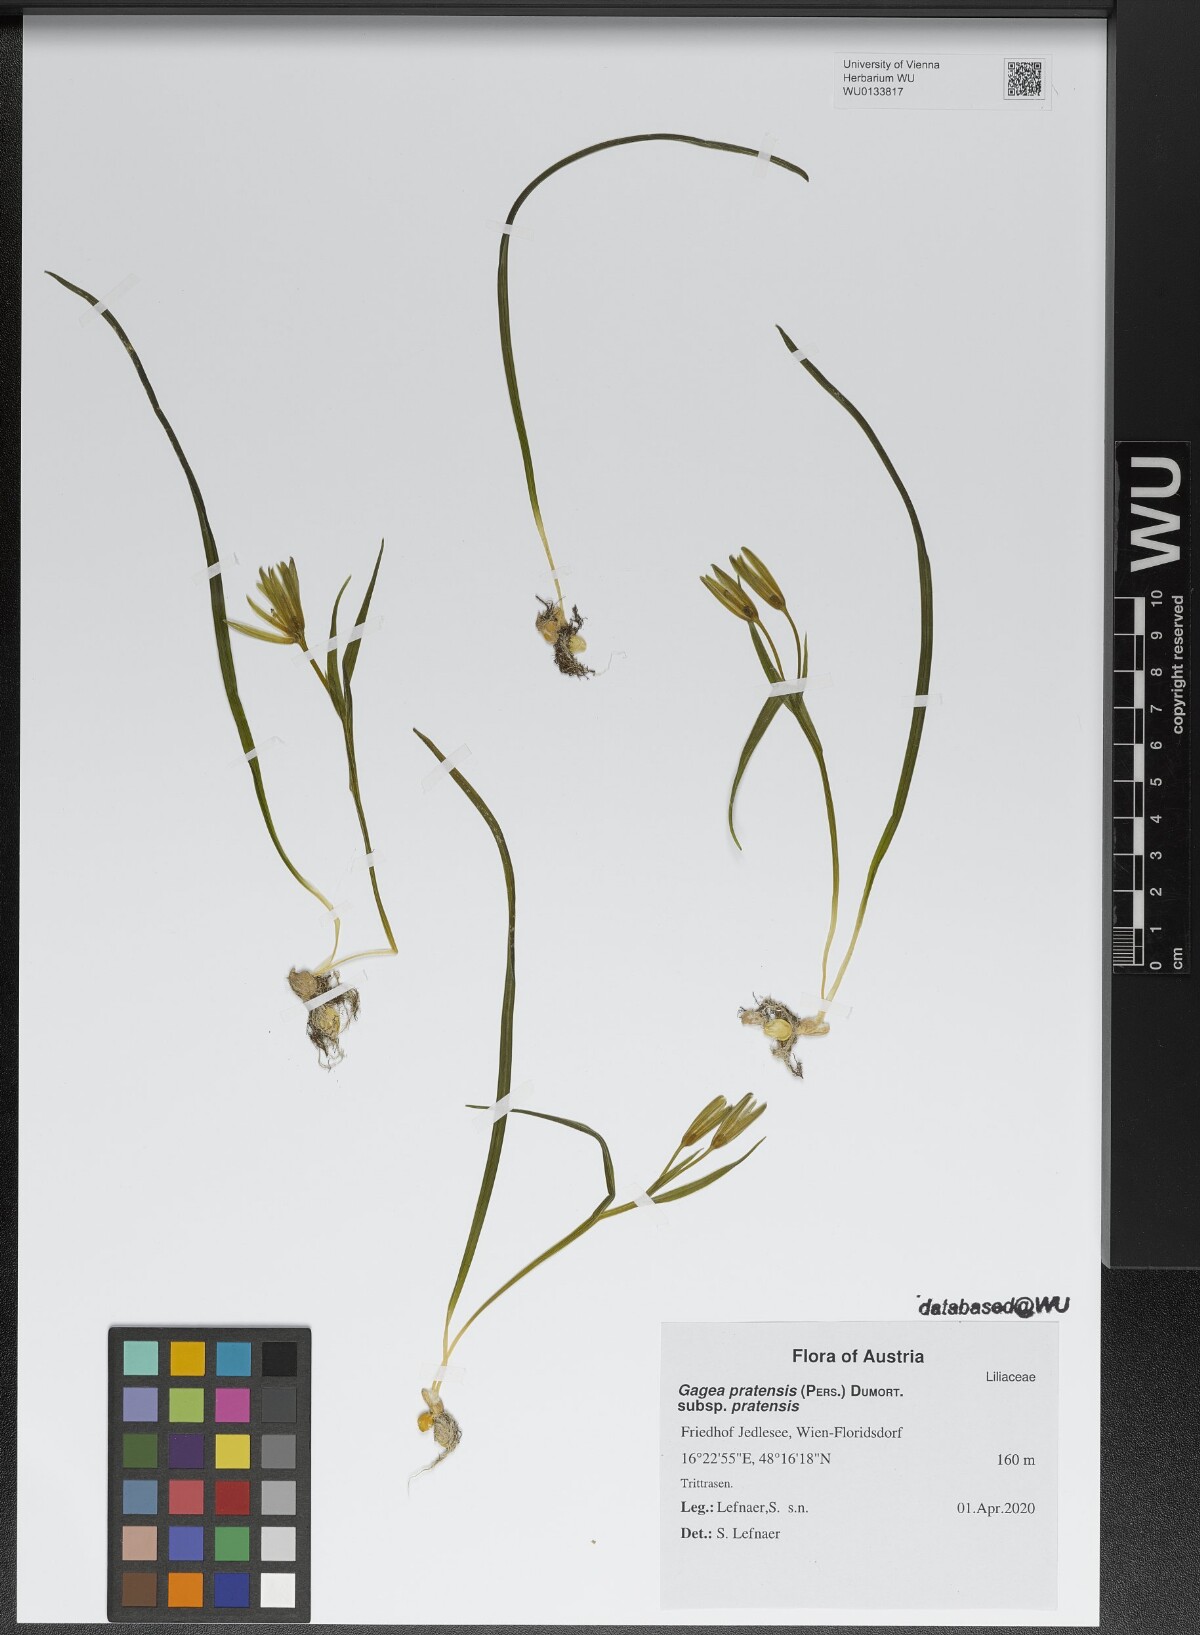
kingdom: Plantae
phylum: Tracheophyta
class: Liliopsida
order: Liliales
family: Liliaceae
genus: Gagea
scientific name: Gagea pratensis
